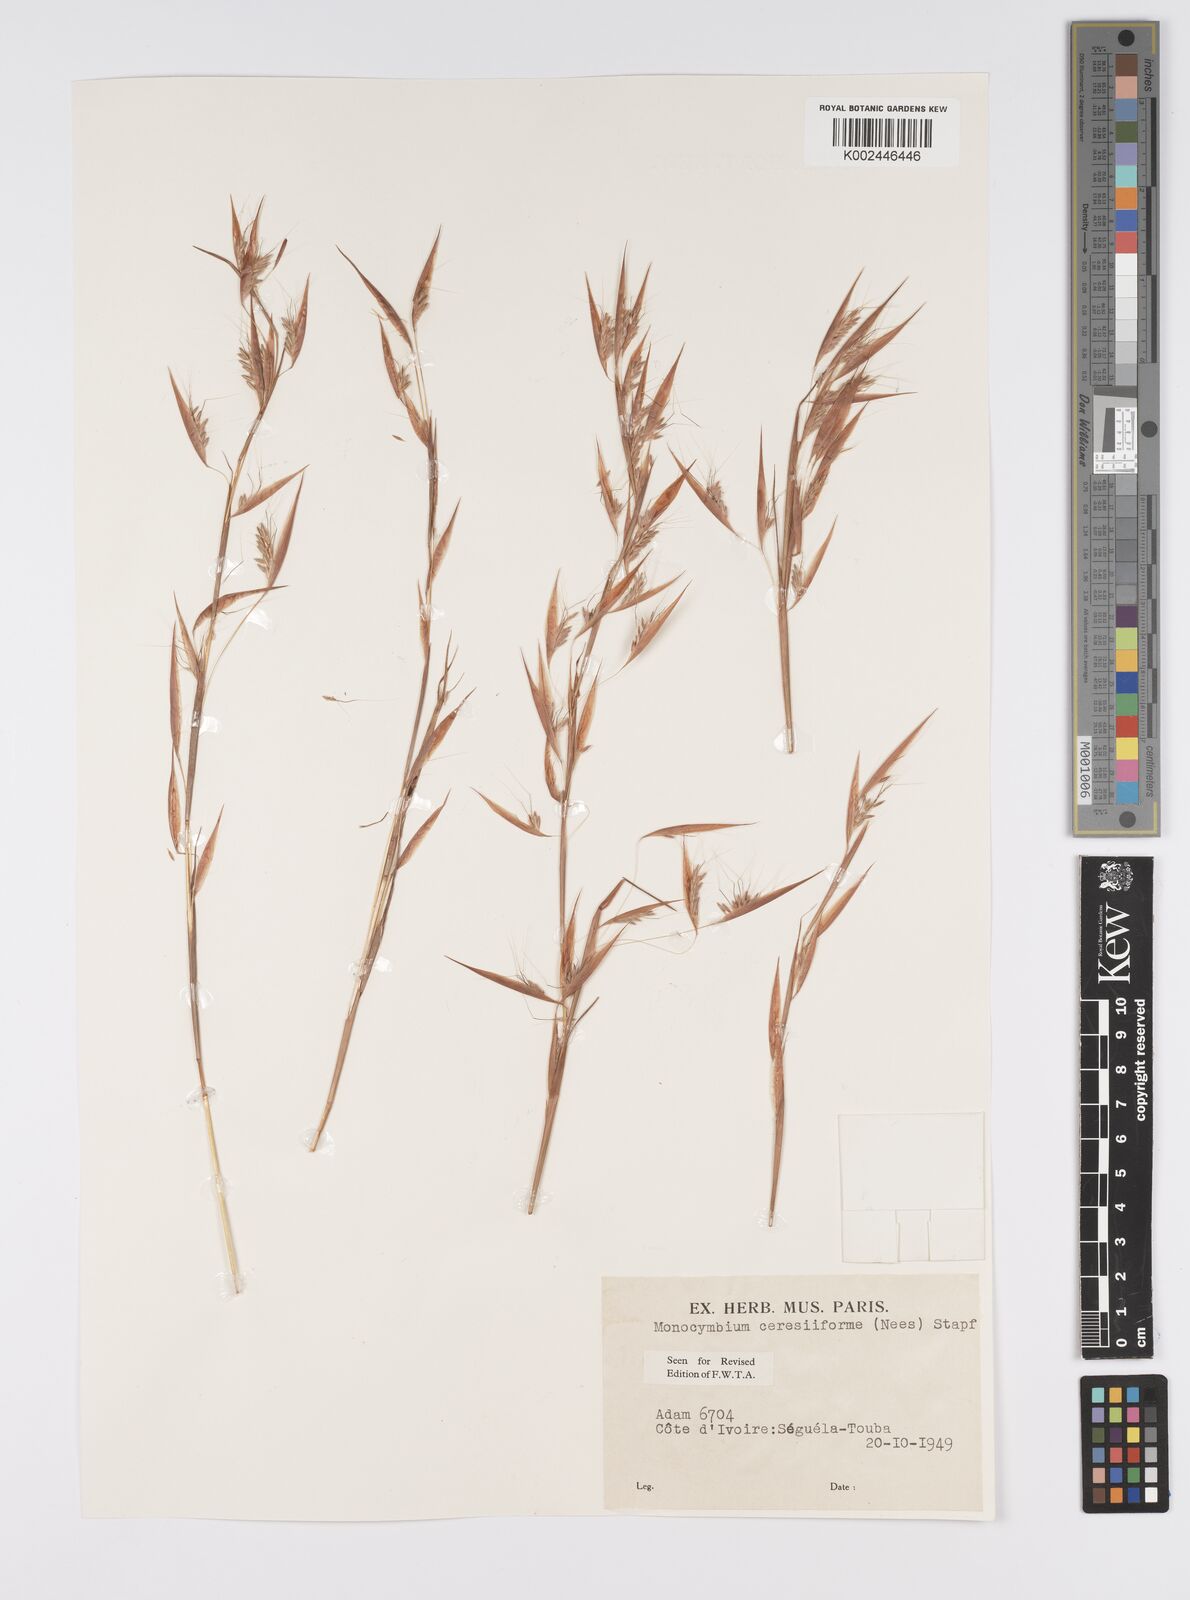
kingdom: Plantae
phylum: Tracheophyta
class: Liliopsida
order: Poales
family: Poaceae
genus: Monocymbium
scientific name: Monocymbium ceresiiforme
